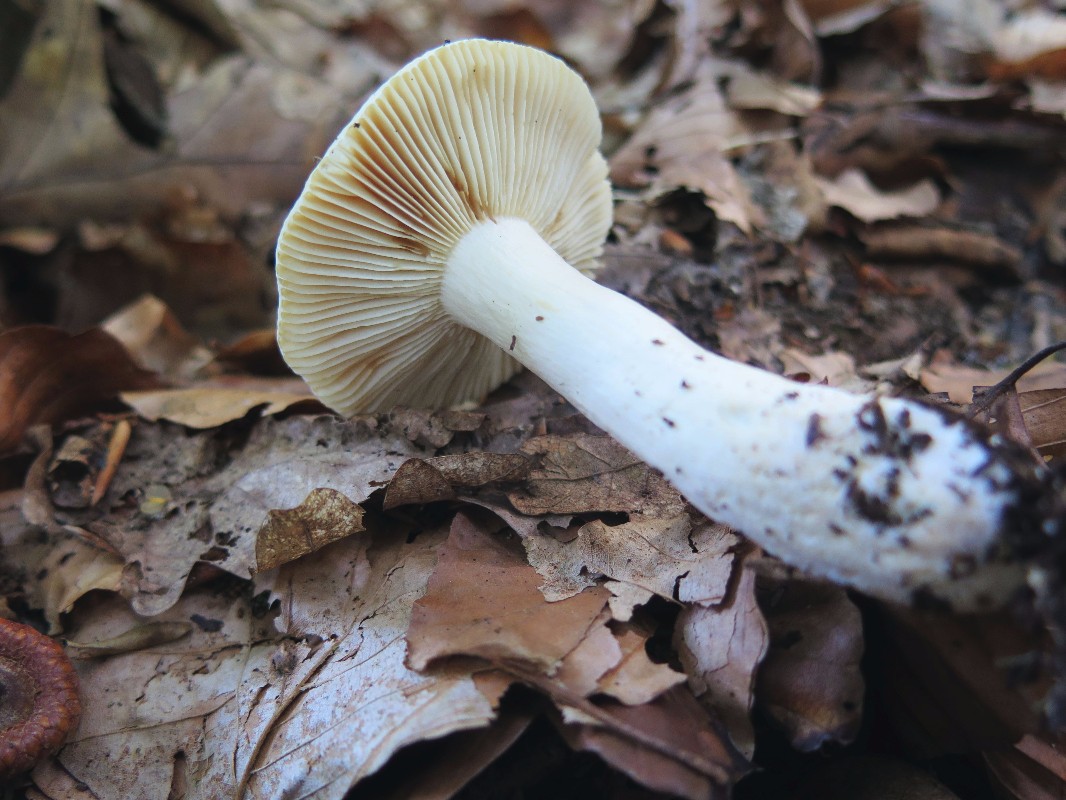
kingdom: Fungi
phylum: Basidiomycota
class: Agaricomycetes
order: Russulales
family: Russulaceae
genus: Russula
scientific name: Russula fellea
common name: galde-skørhat
